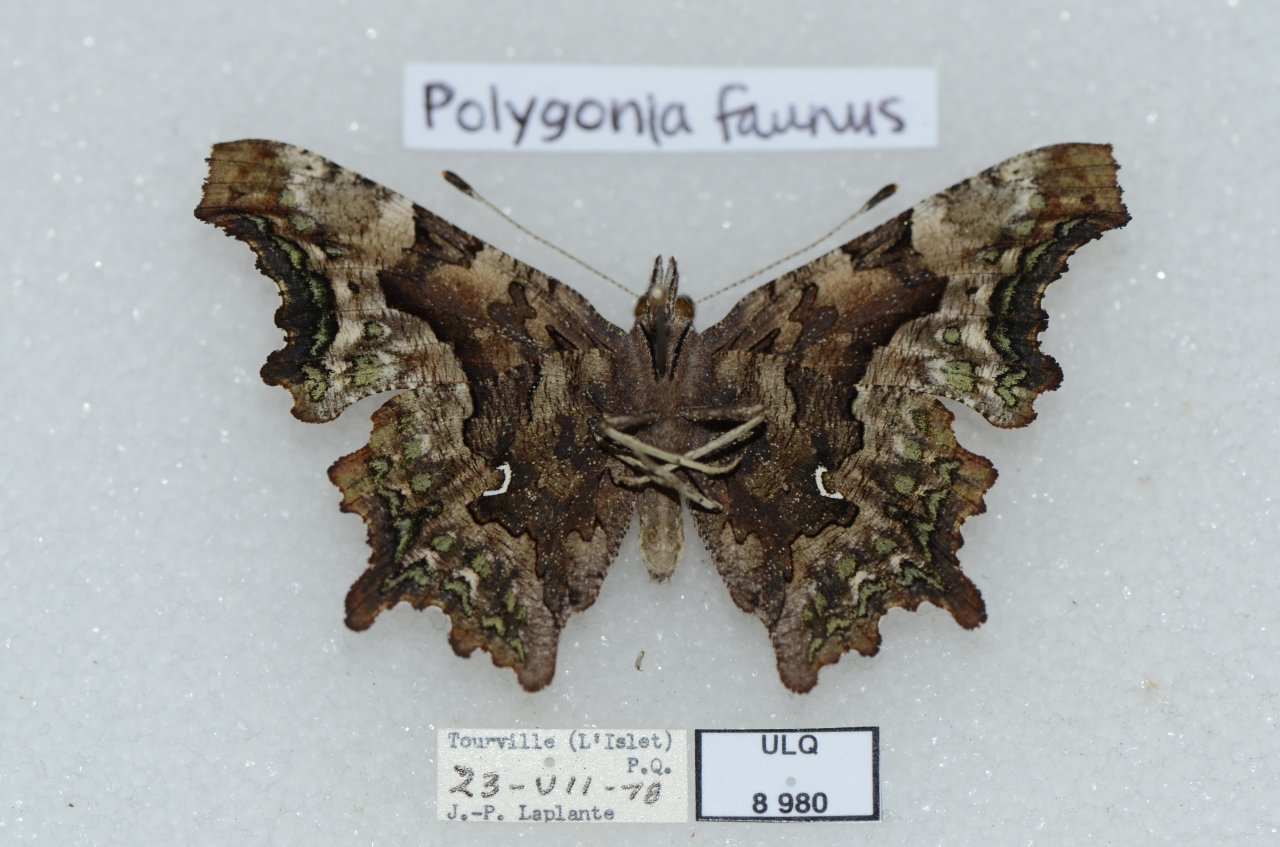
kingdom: Animalia
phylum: Arthropoda
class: Insecta
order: Lepidoptera
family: Nymphalidae
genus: Polygonia
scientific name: Polygonia faunus
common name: Green Comma
